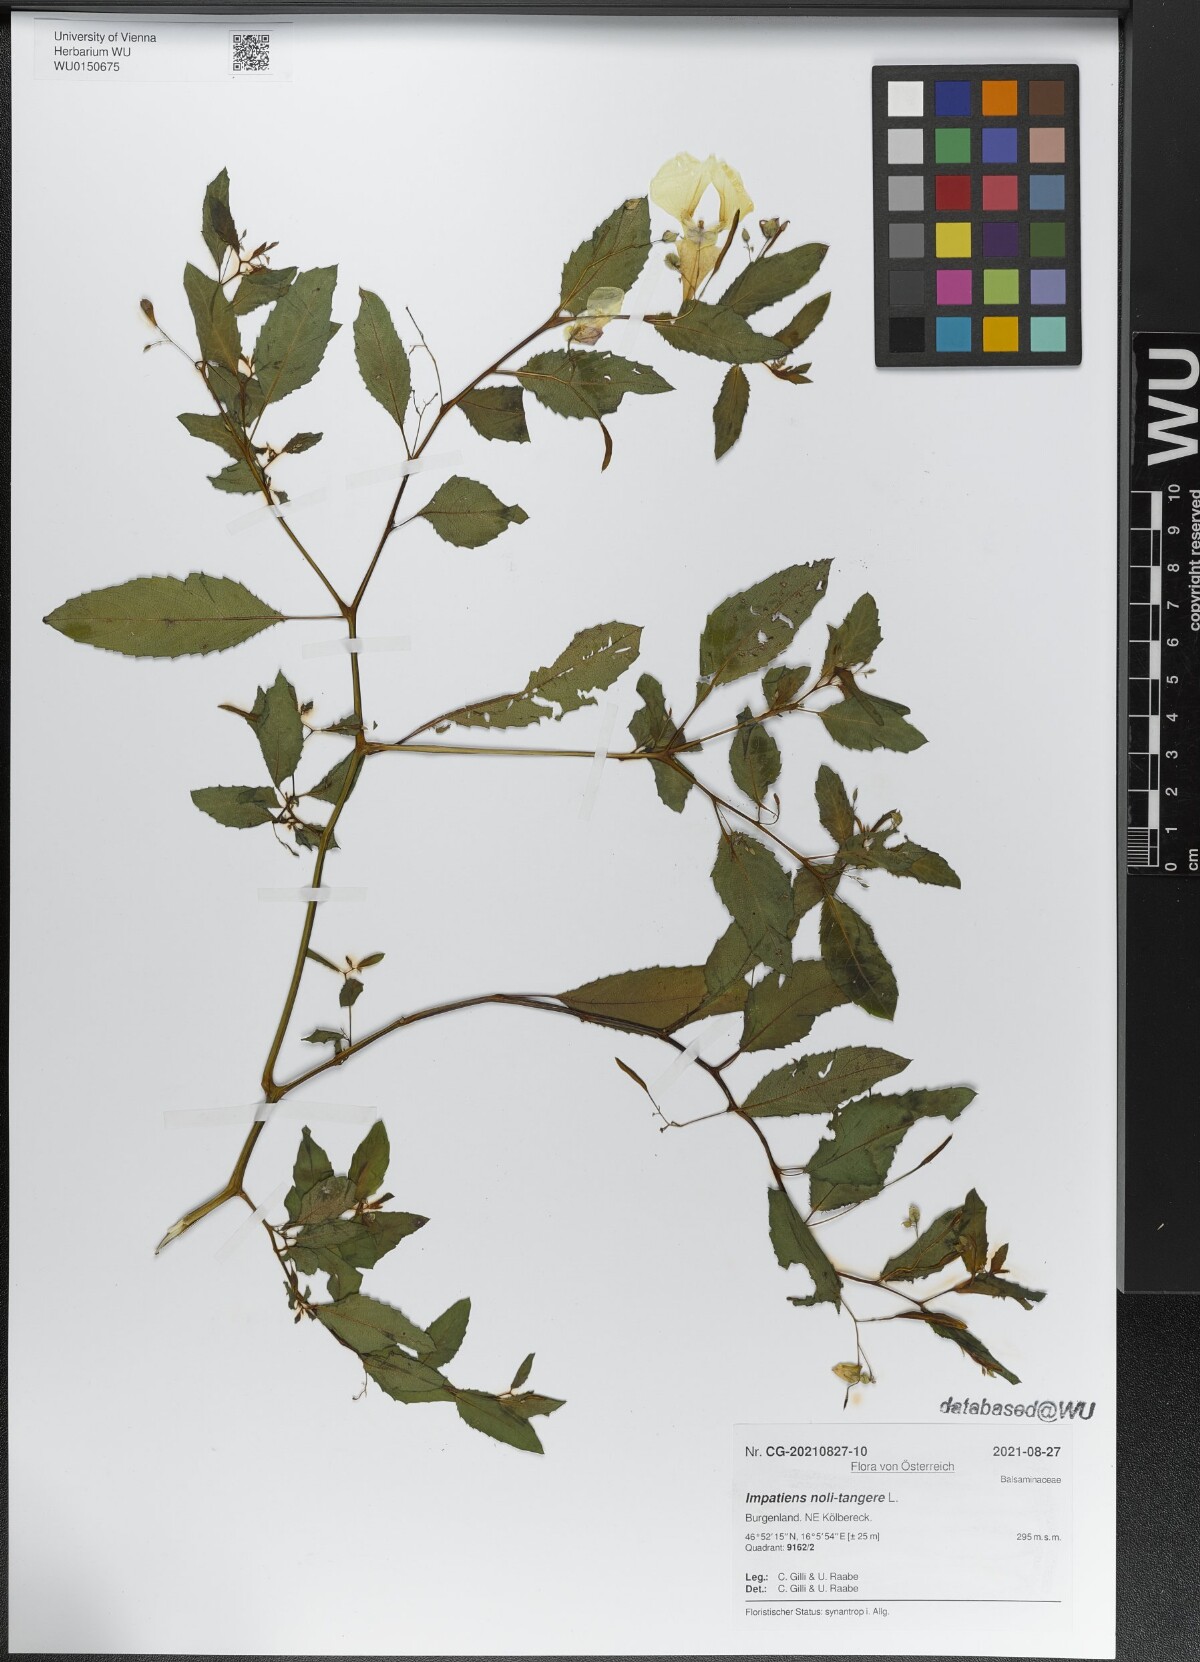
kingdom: Plantae
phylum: Tracheophyta
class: Magnoliopsida
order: Ericales
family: Balsaminaceae
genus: Impatiens
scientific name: Impatiens noli-tangere
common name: Touch-me-not balsam
